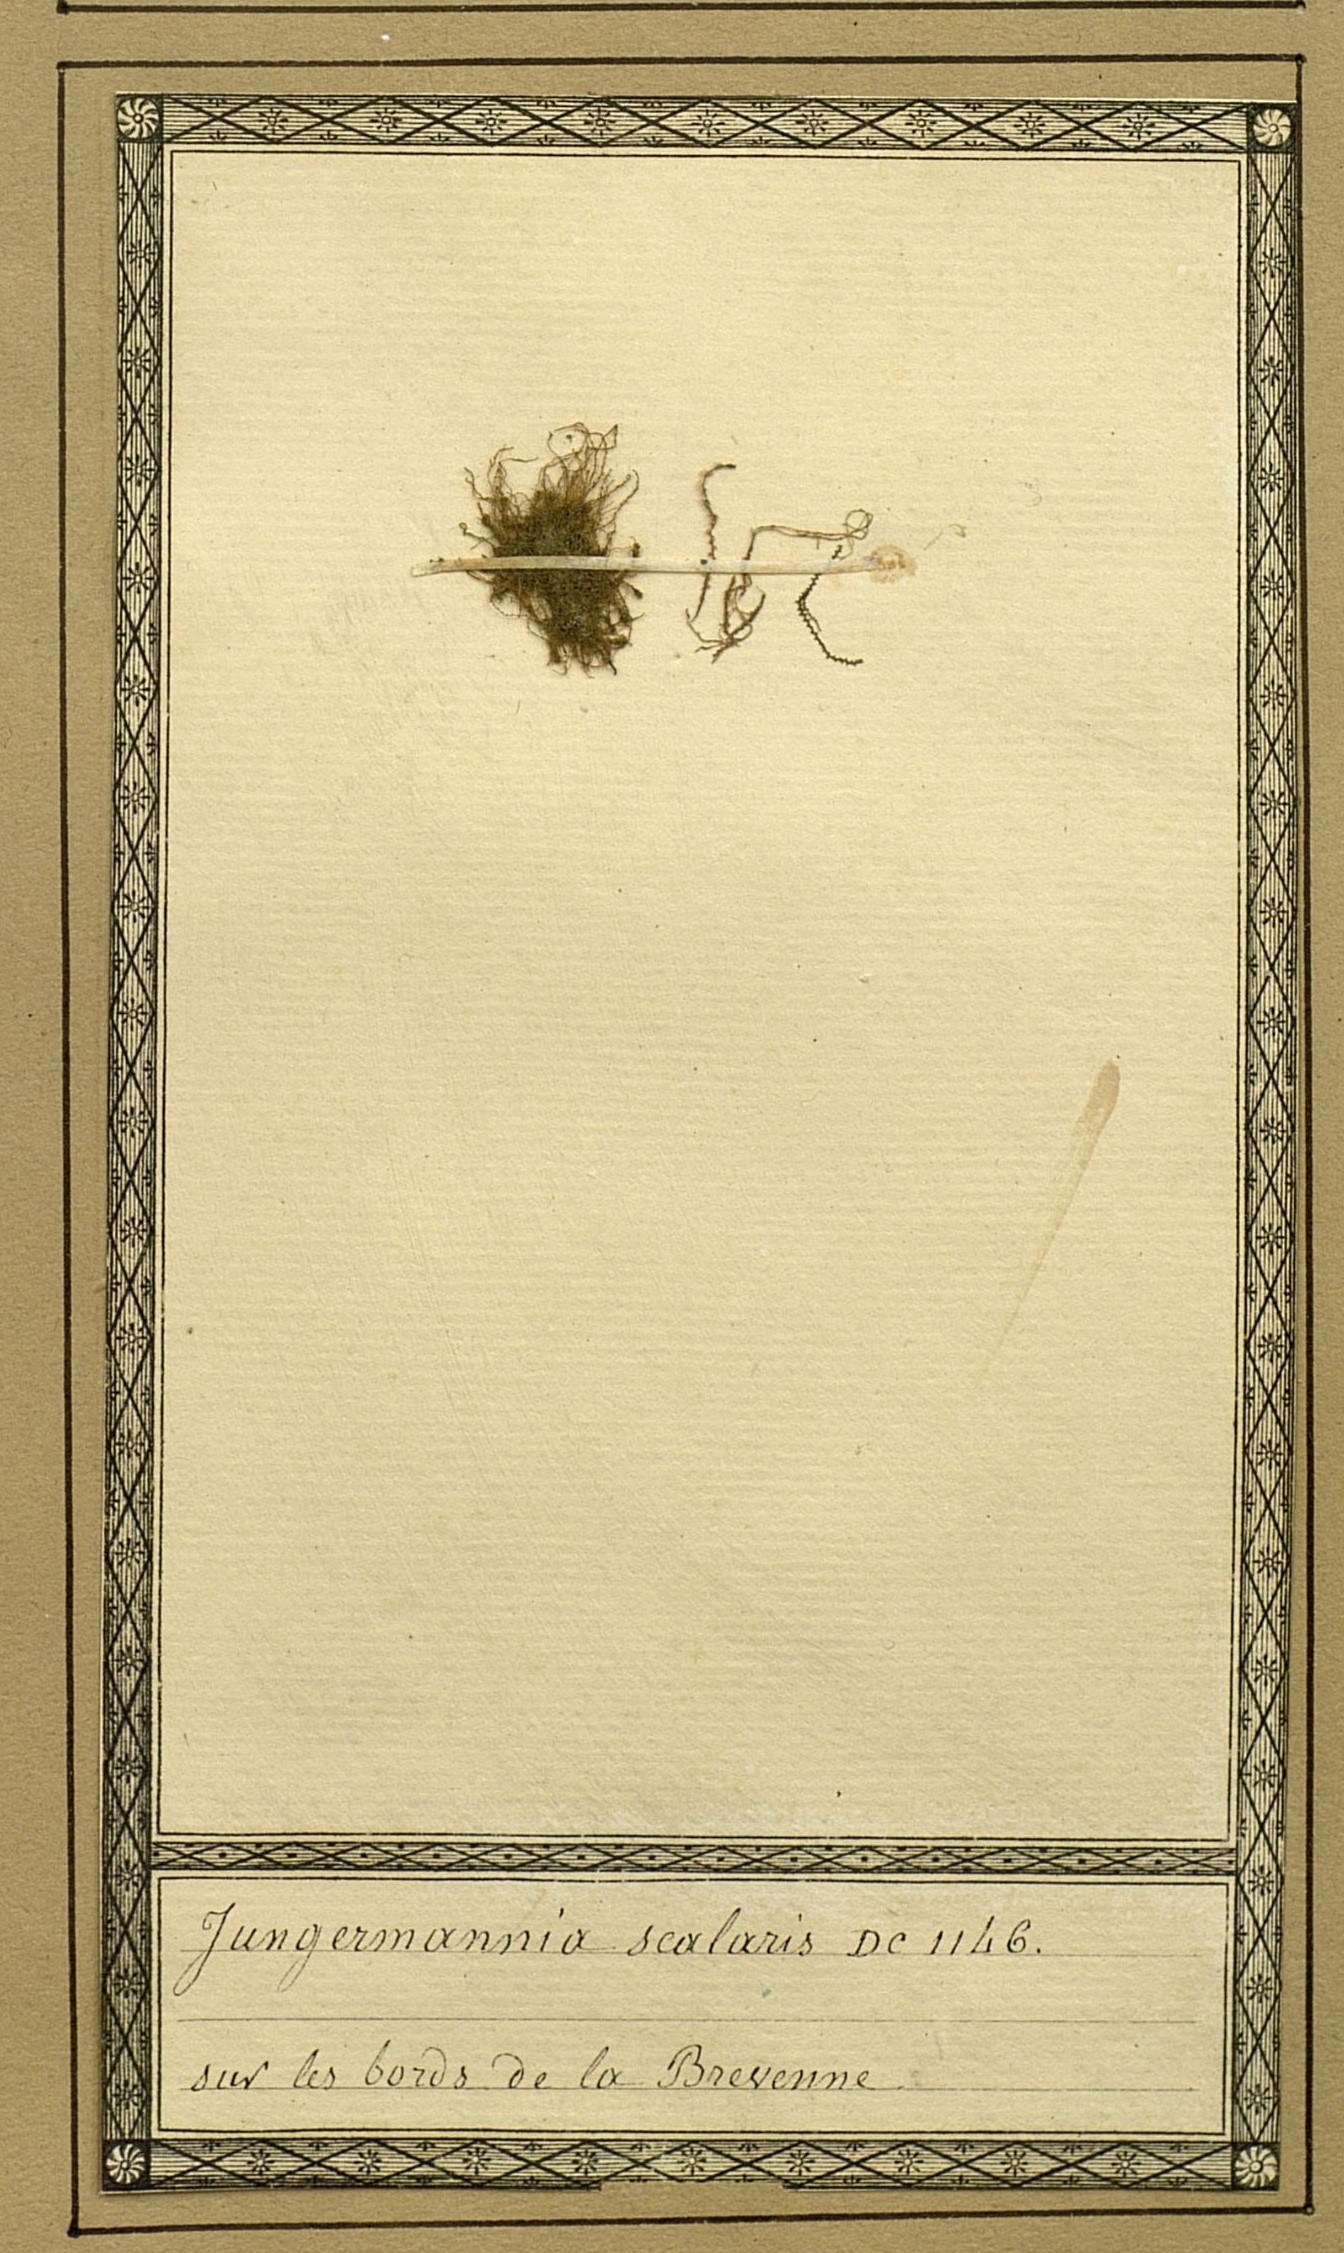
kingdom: Plantae
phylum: Marchantiophyta
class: Jungermanniopsida
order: Jungermanniales
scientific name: Jungermanniales
